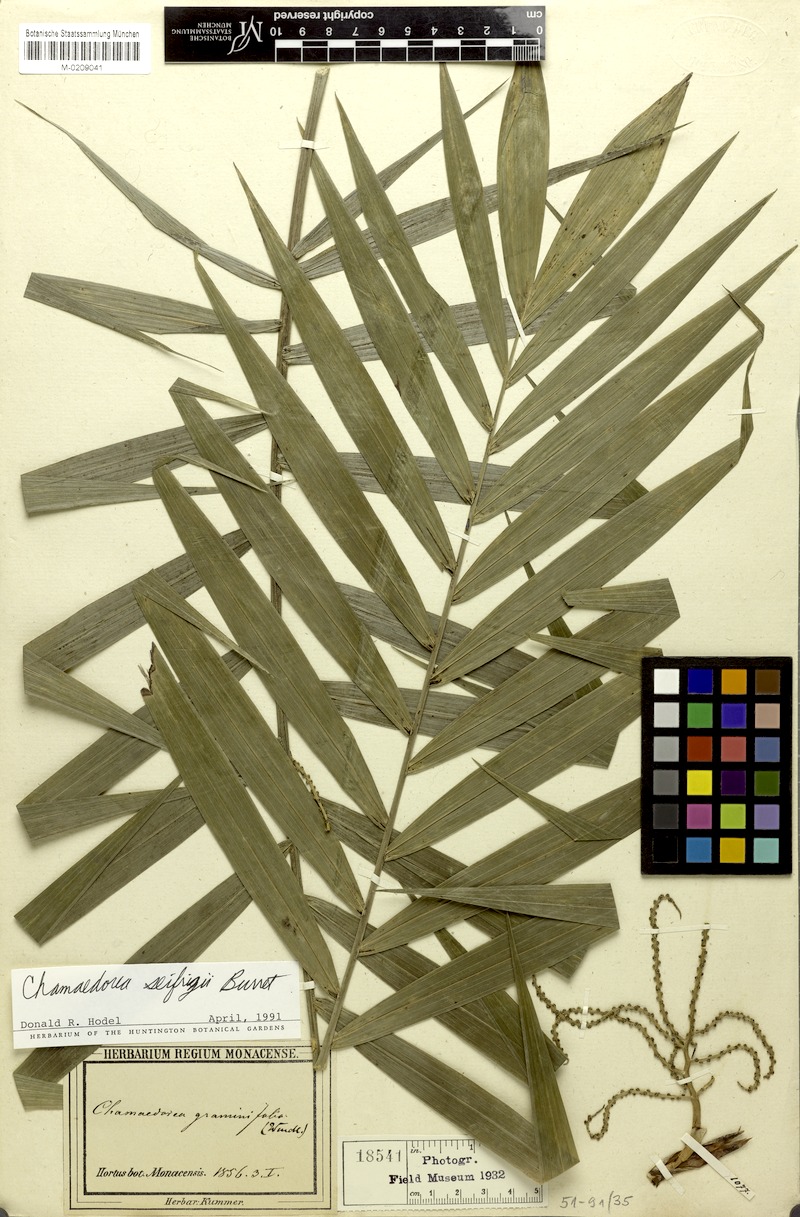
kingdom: Plantae
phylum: Tracheophyta
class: Liliopsida
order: Arecales
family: Arecaceae
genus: Chamaedorea
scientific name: Chamaedorea seifrizii
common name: Seifriz's chamaedorea
